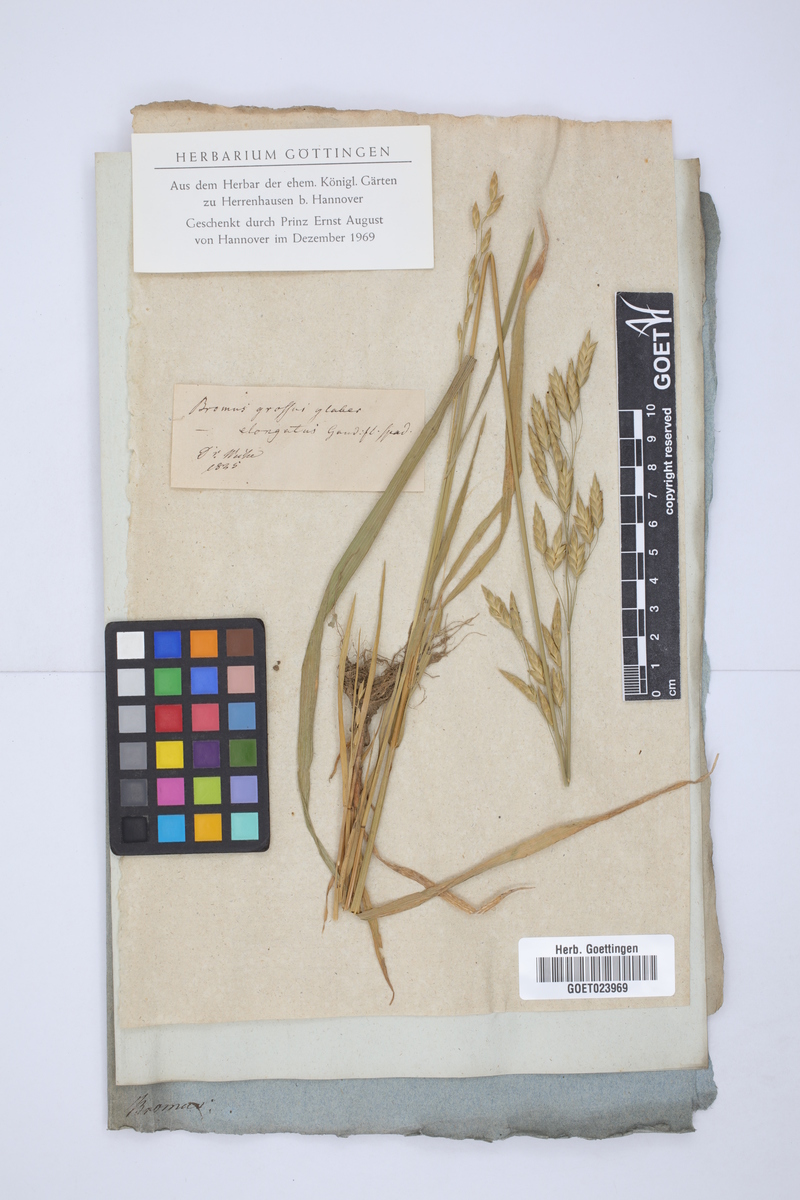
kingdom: Plantae
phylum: Tracheophyta
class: Liliopsida
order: Poales
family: Poaceae
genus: Bromus
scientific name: Bromus grossus
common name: Whiskered brome
